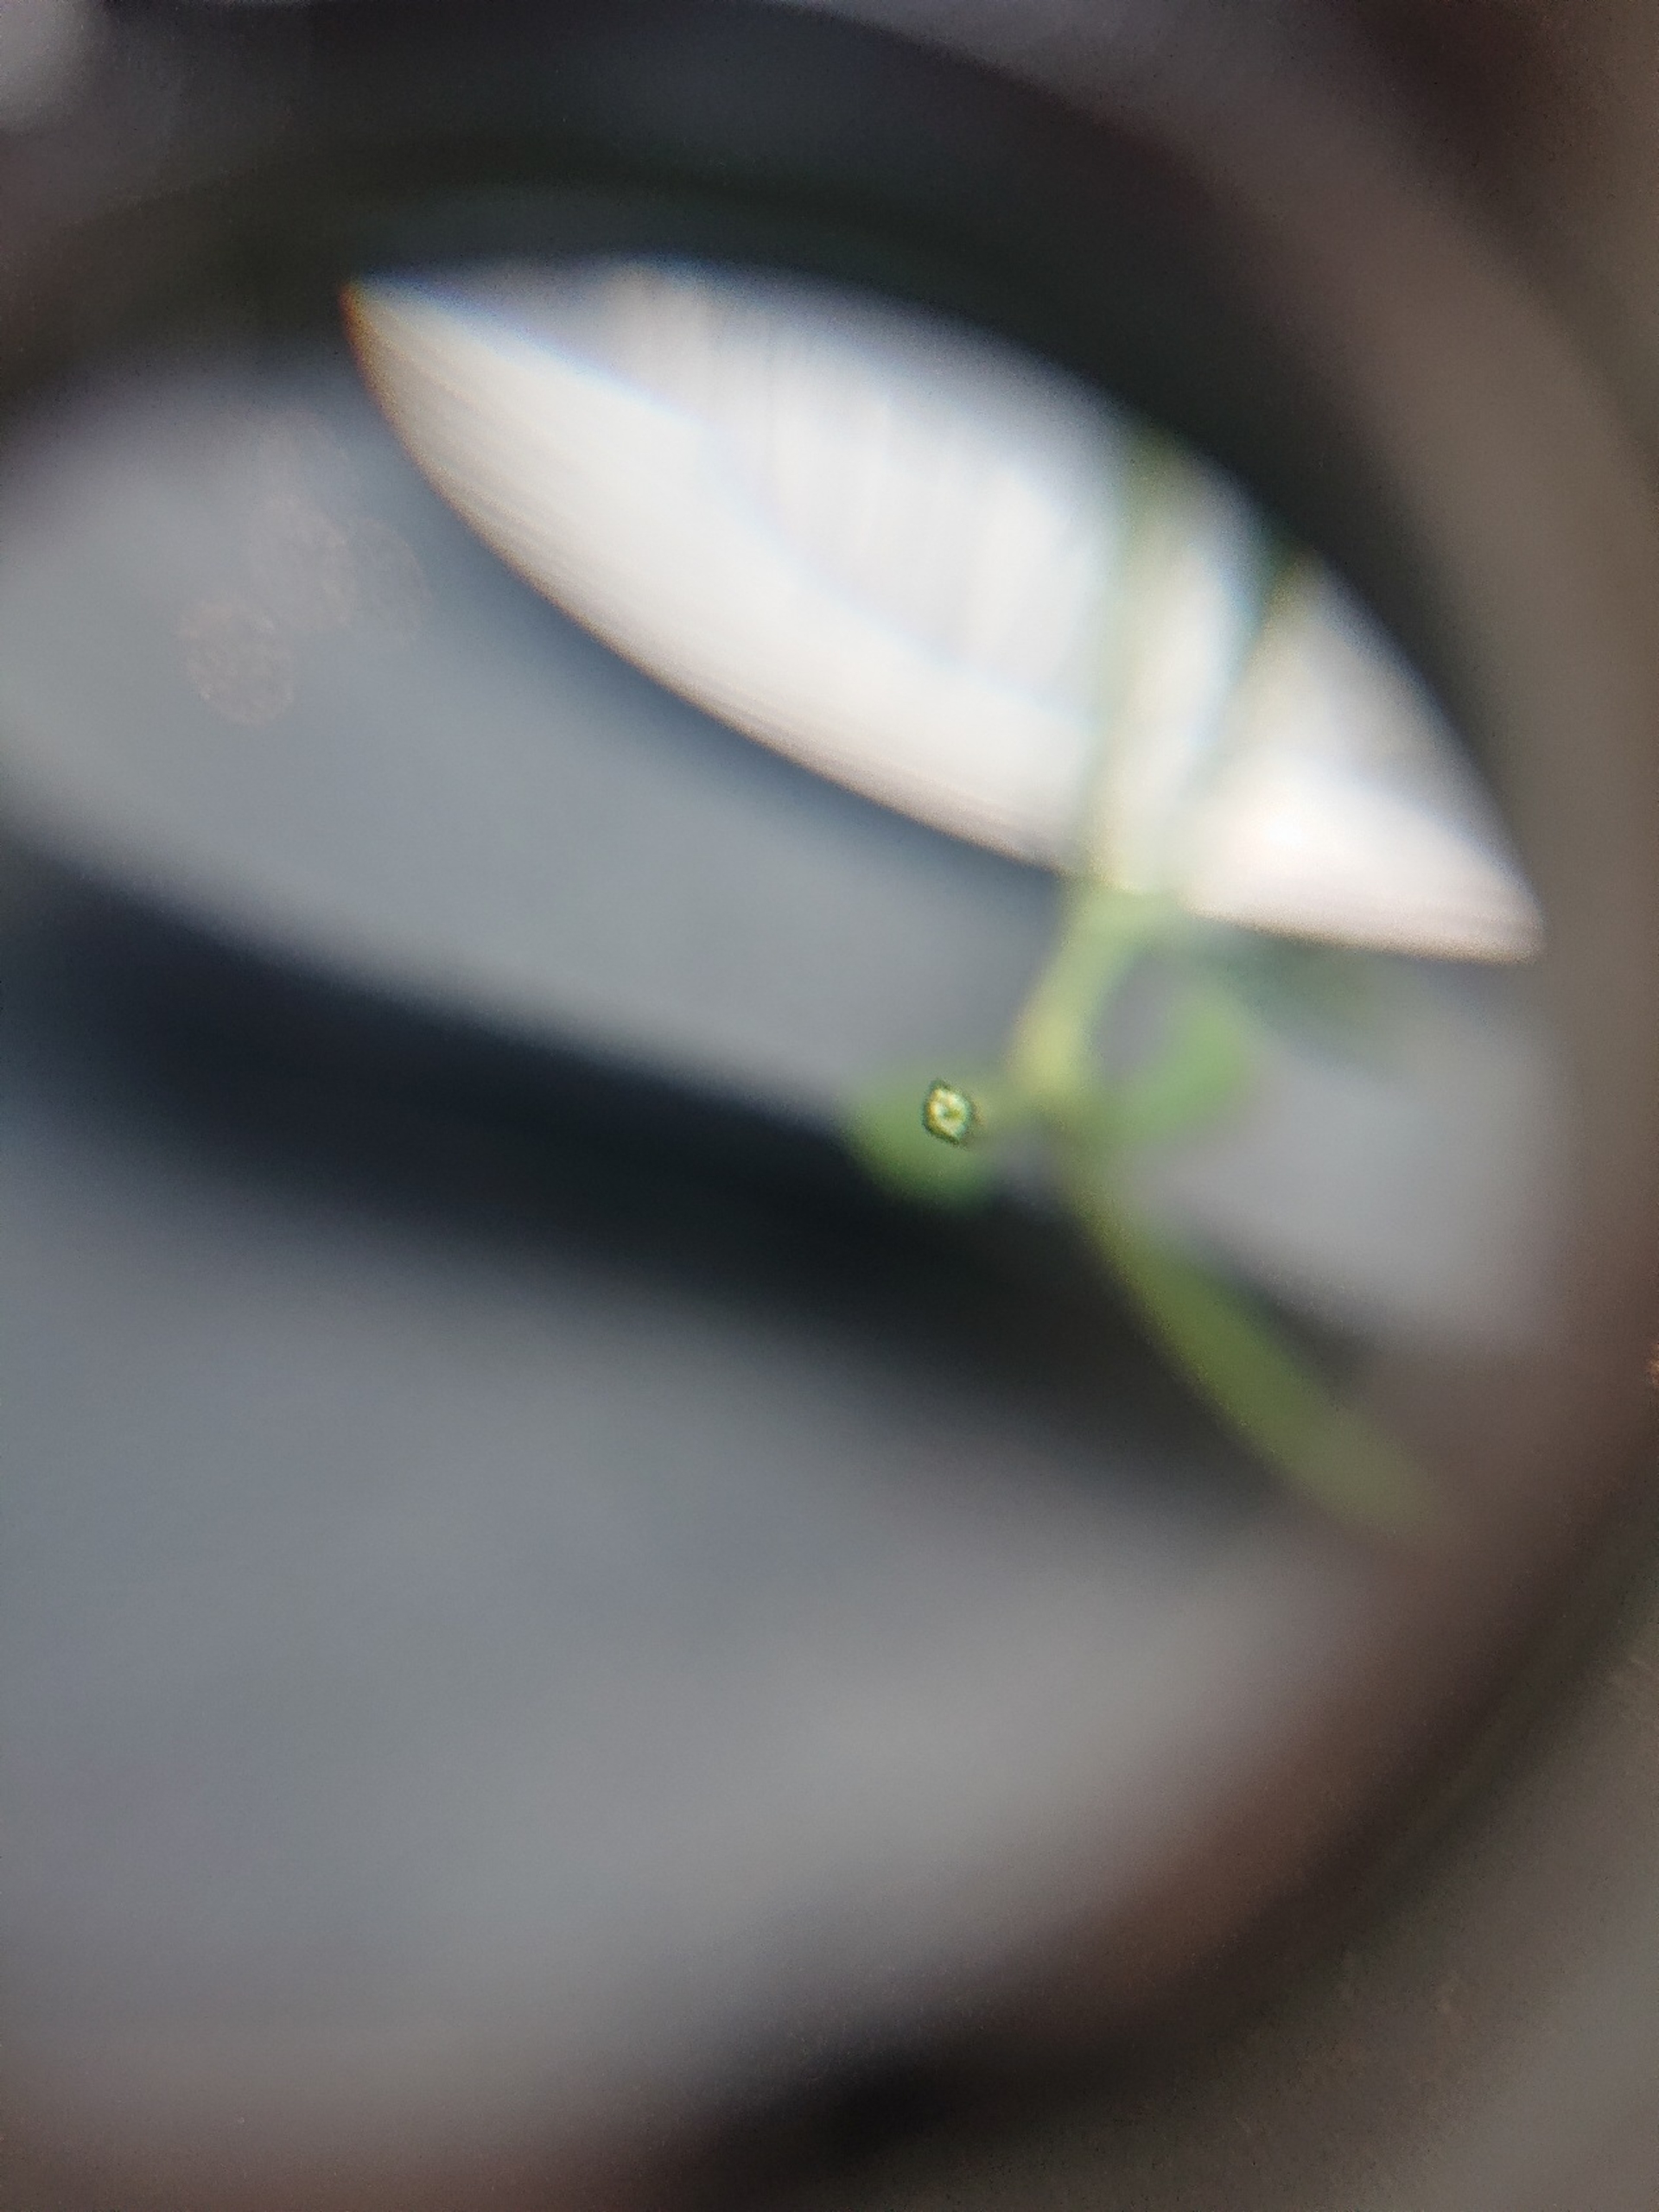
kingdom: Plantae
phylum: Tracheophyta
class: Magnoliopsida
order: Fabales
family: Fabaceae
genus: Lotus
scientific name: Lotus corniculatus
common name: Almindelig kællingetand
